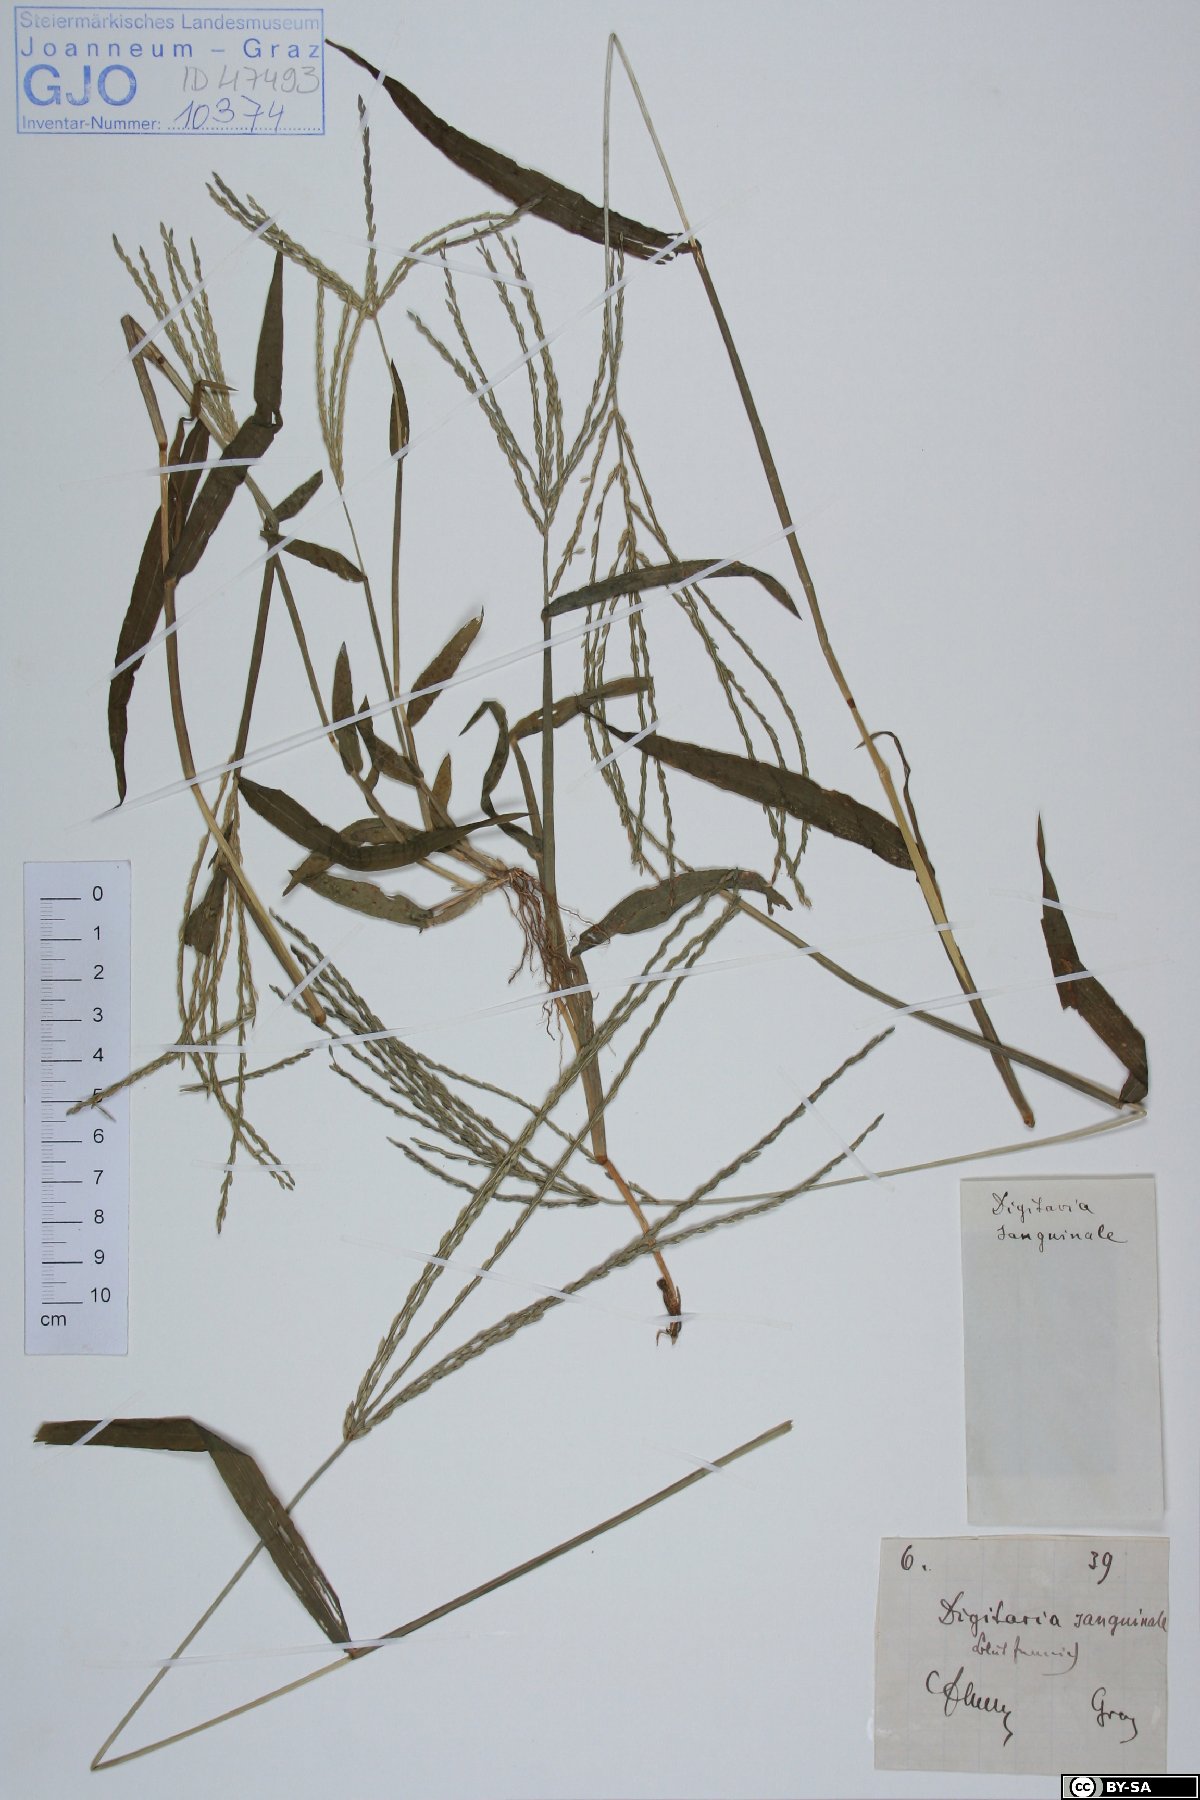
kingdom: Plantae
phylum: Tracheophyta
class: Liliopsida
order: Poales
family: Poaceae
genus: Digitaria
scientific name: Digitaria sanguinalis
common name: Hairy crabgrass
